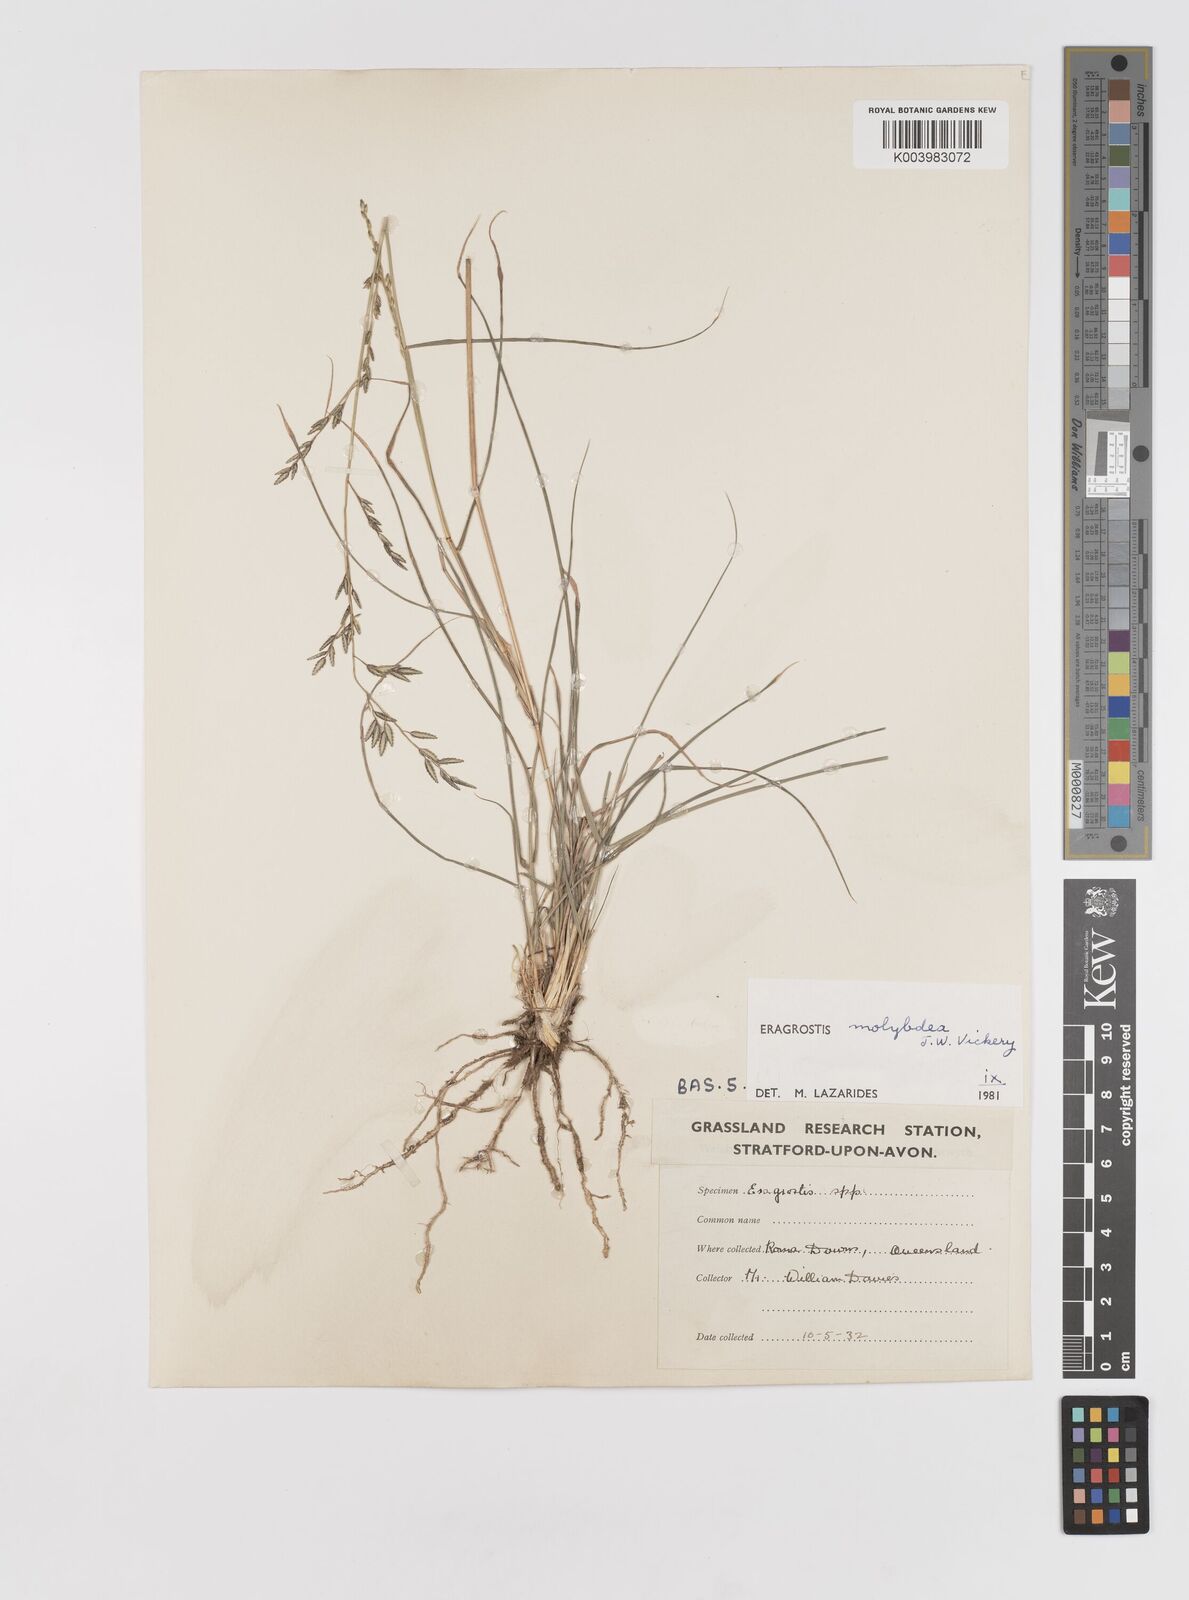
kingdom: Plantae
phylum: Tracheophyta
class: Liliopsida
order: Poales
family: Poaceae
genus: Eragrostis
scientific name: Eragrostis leptostachya
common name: Australian lovegrass
